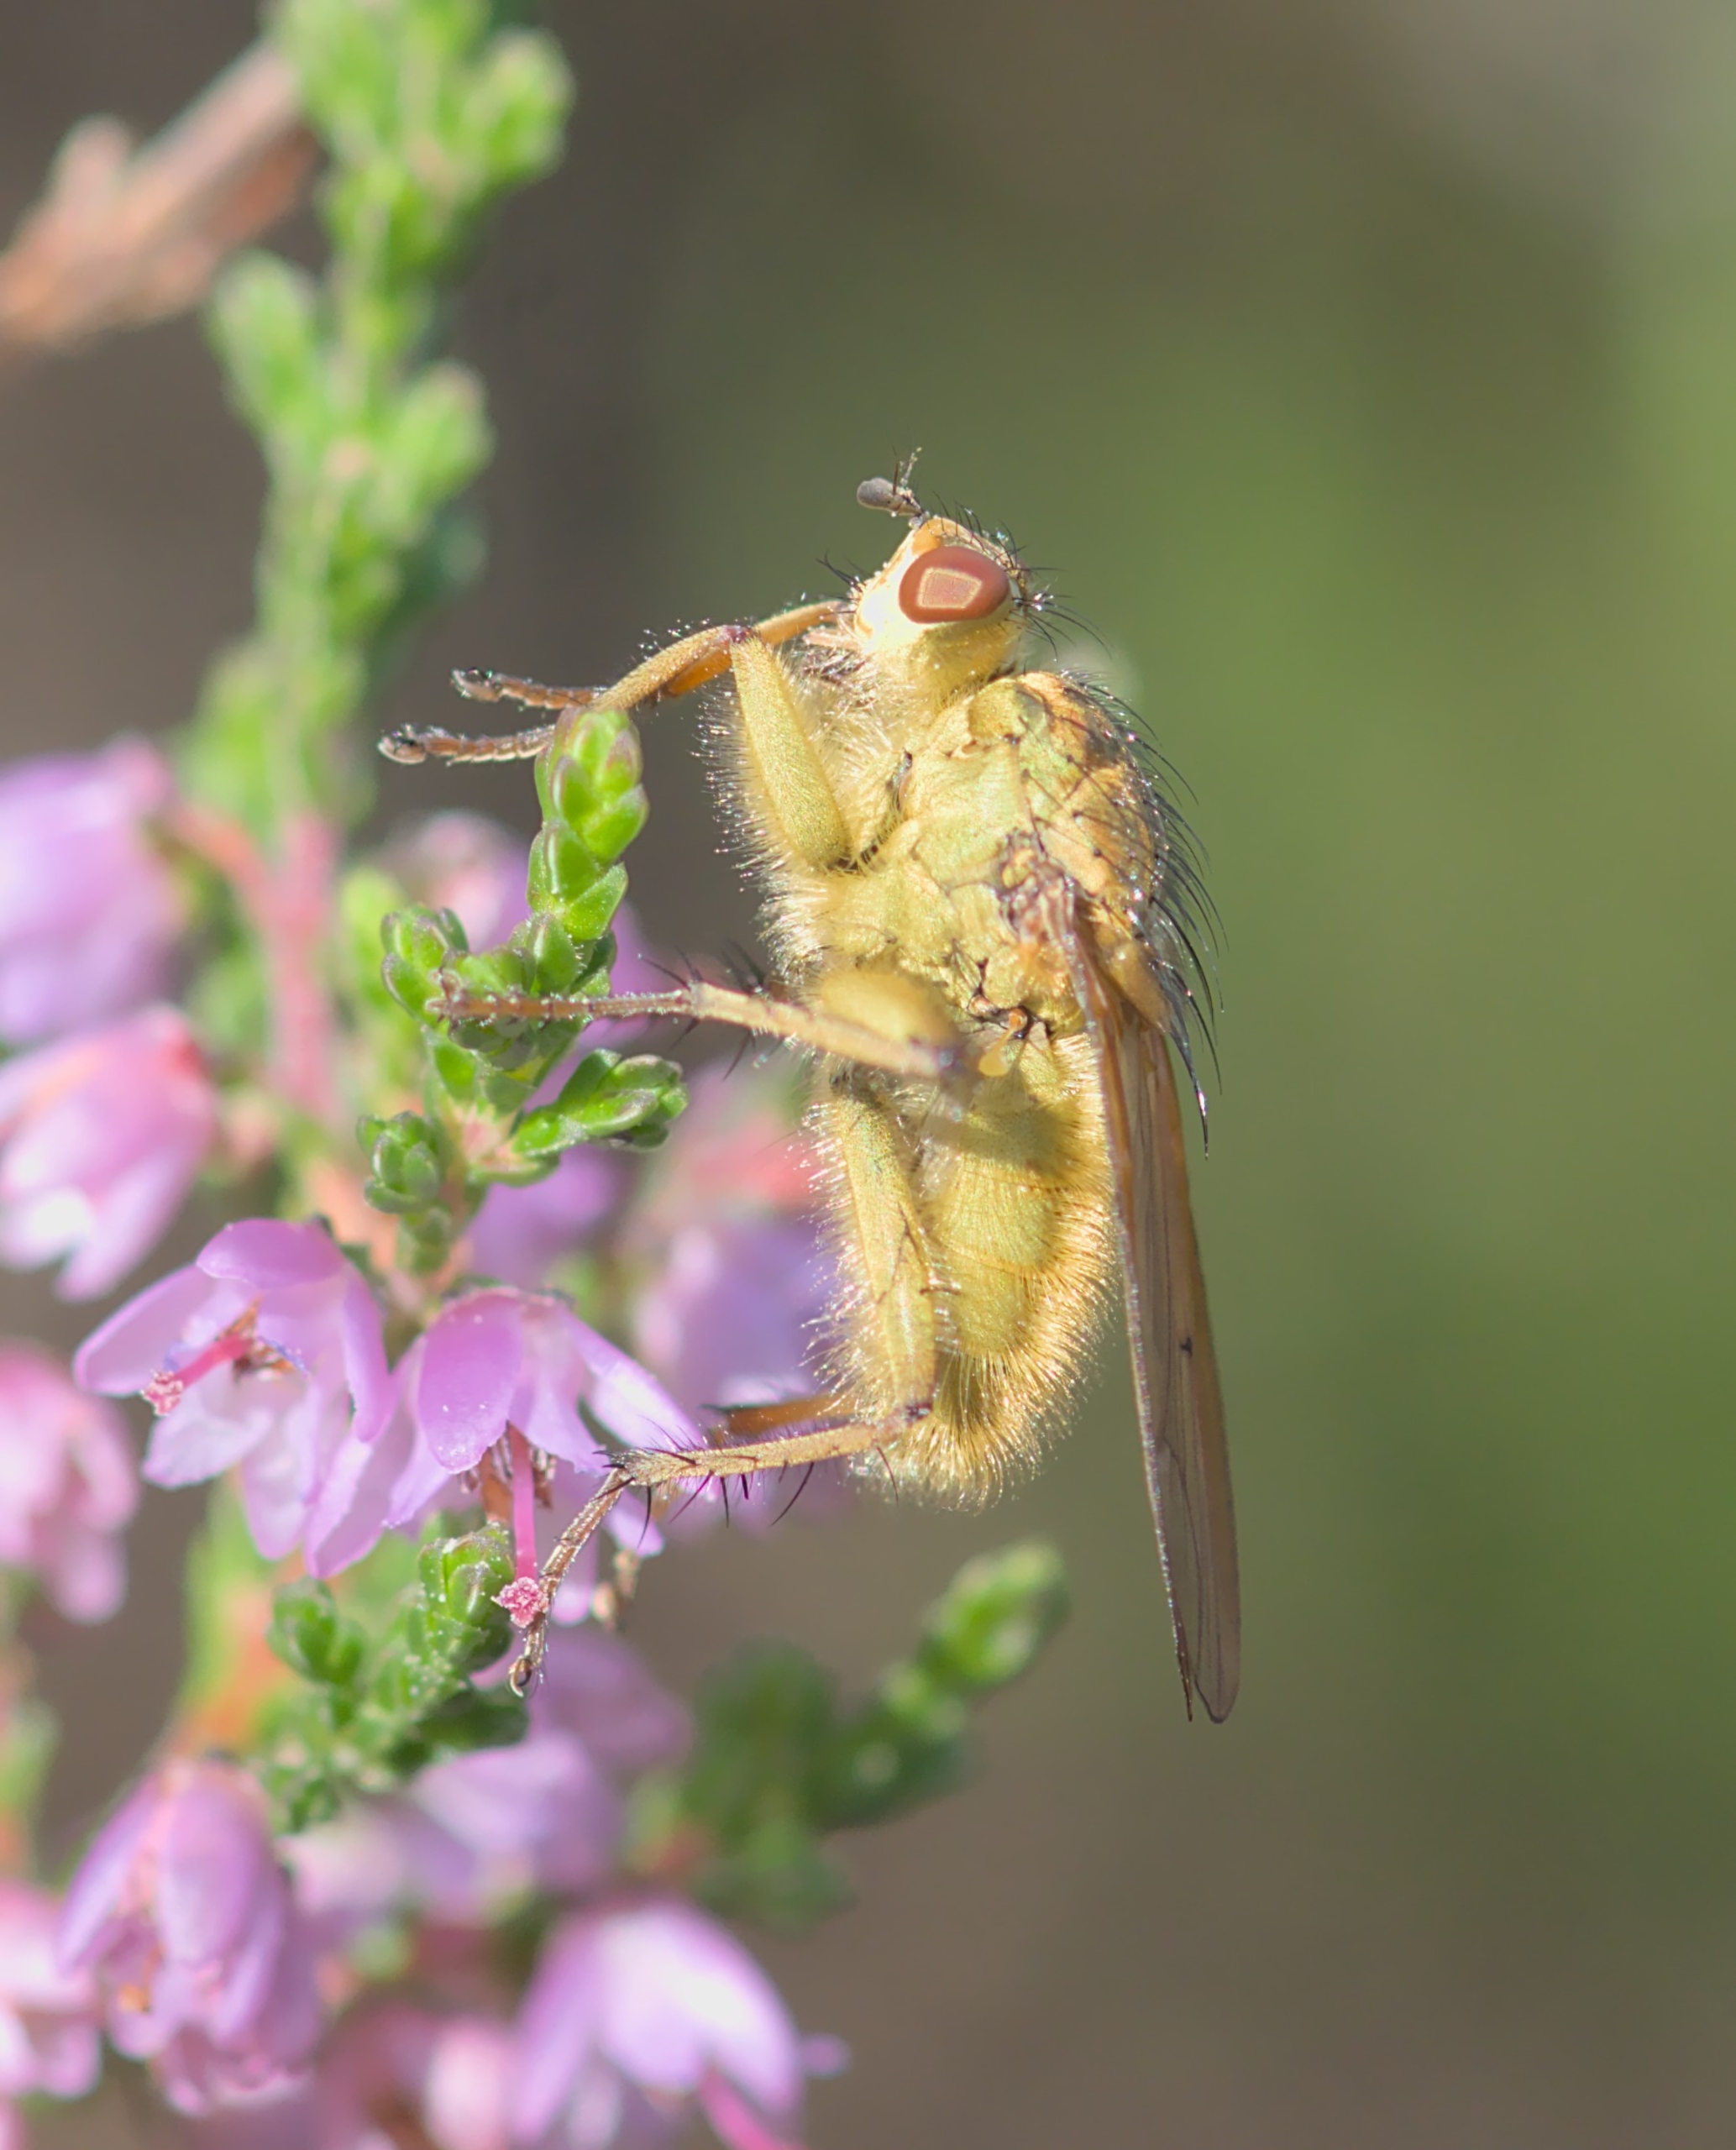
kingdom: Animalia
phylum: Arthropoda
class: Insecta
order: Diptera
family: Scathophagidae
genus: Scathophaga
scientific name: Scathophaga stercoraria
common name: Almindelig gødningsflue
